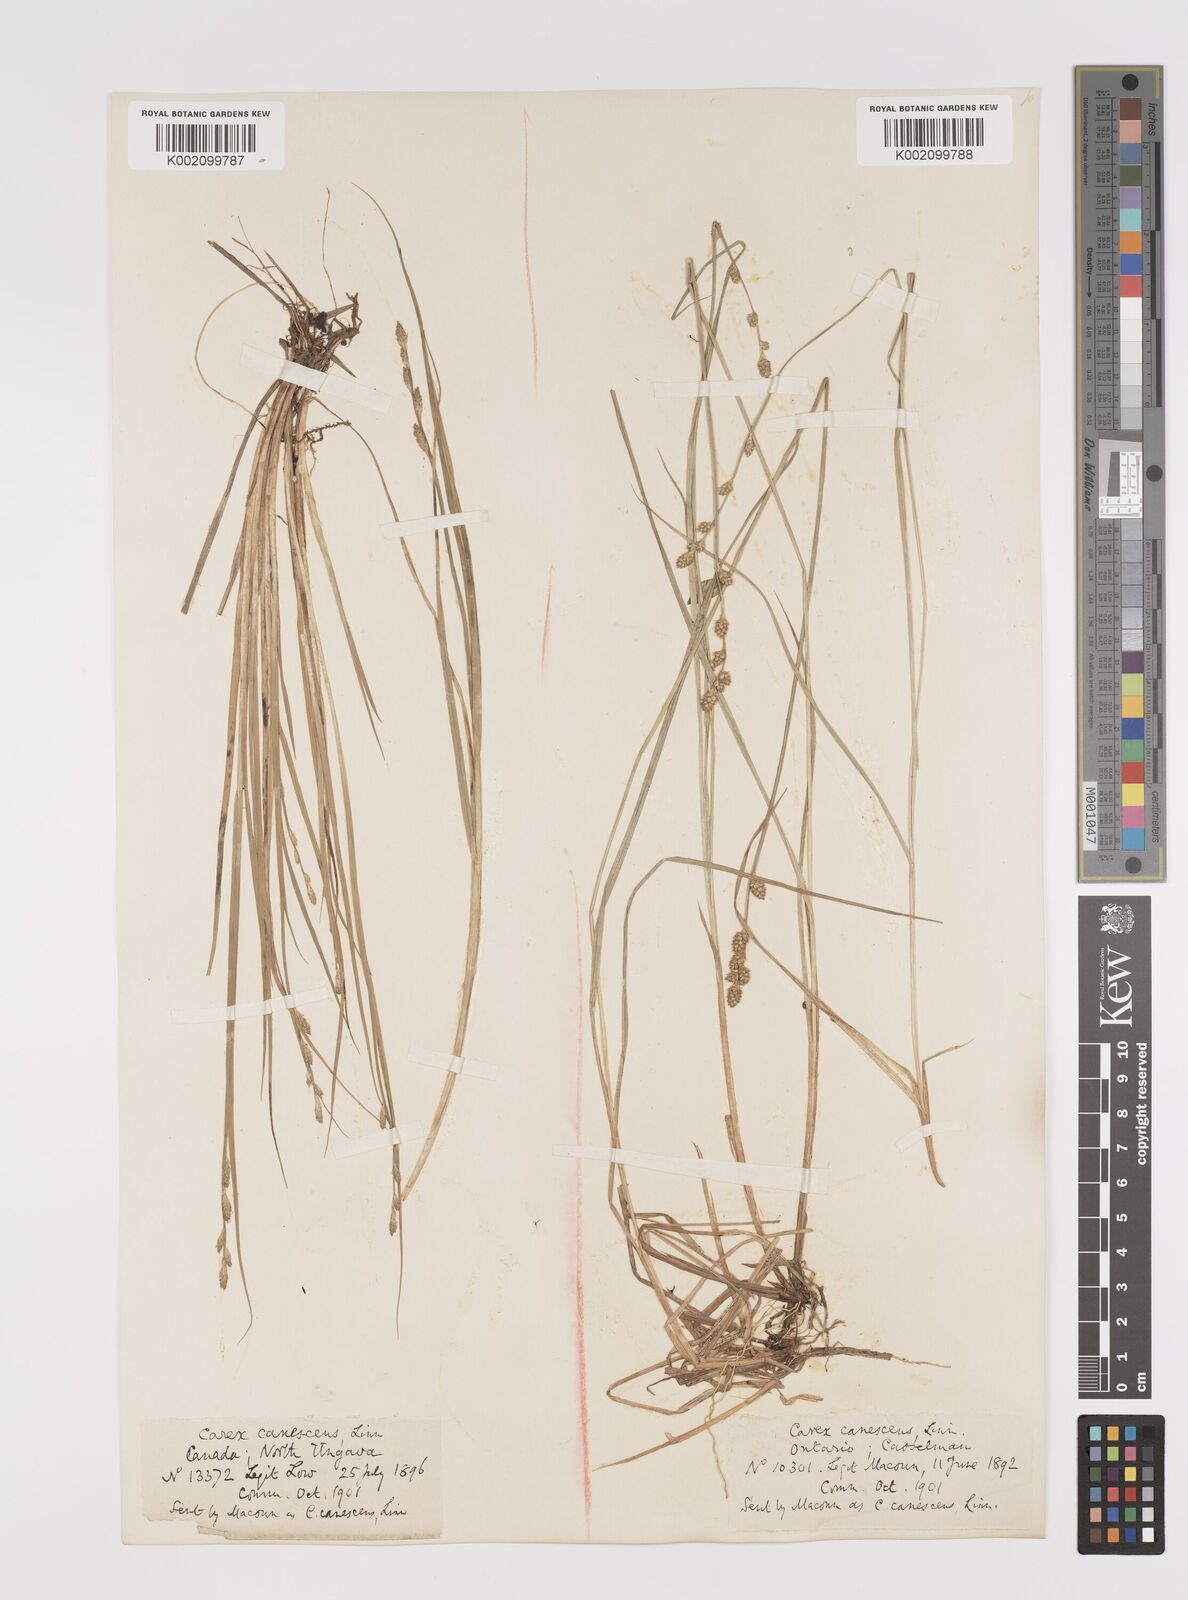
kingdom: Plantae
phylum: Tracheophyta
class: Liliopsida
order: Poales
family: Cyperaceae
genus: Carex
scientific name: Carex curta
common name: White sedge
